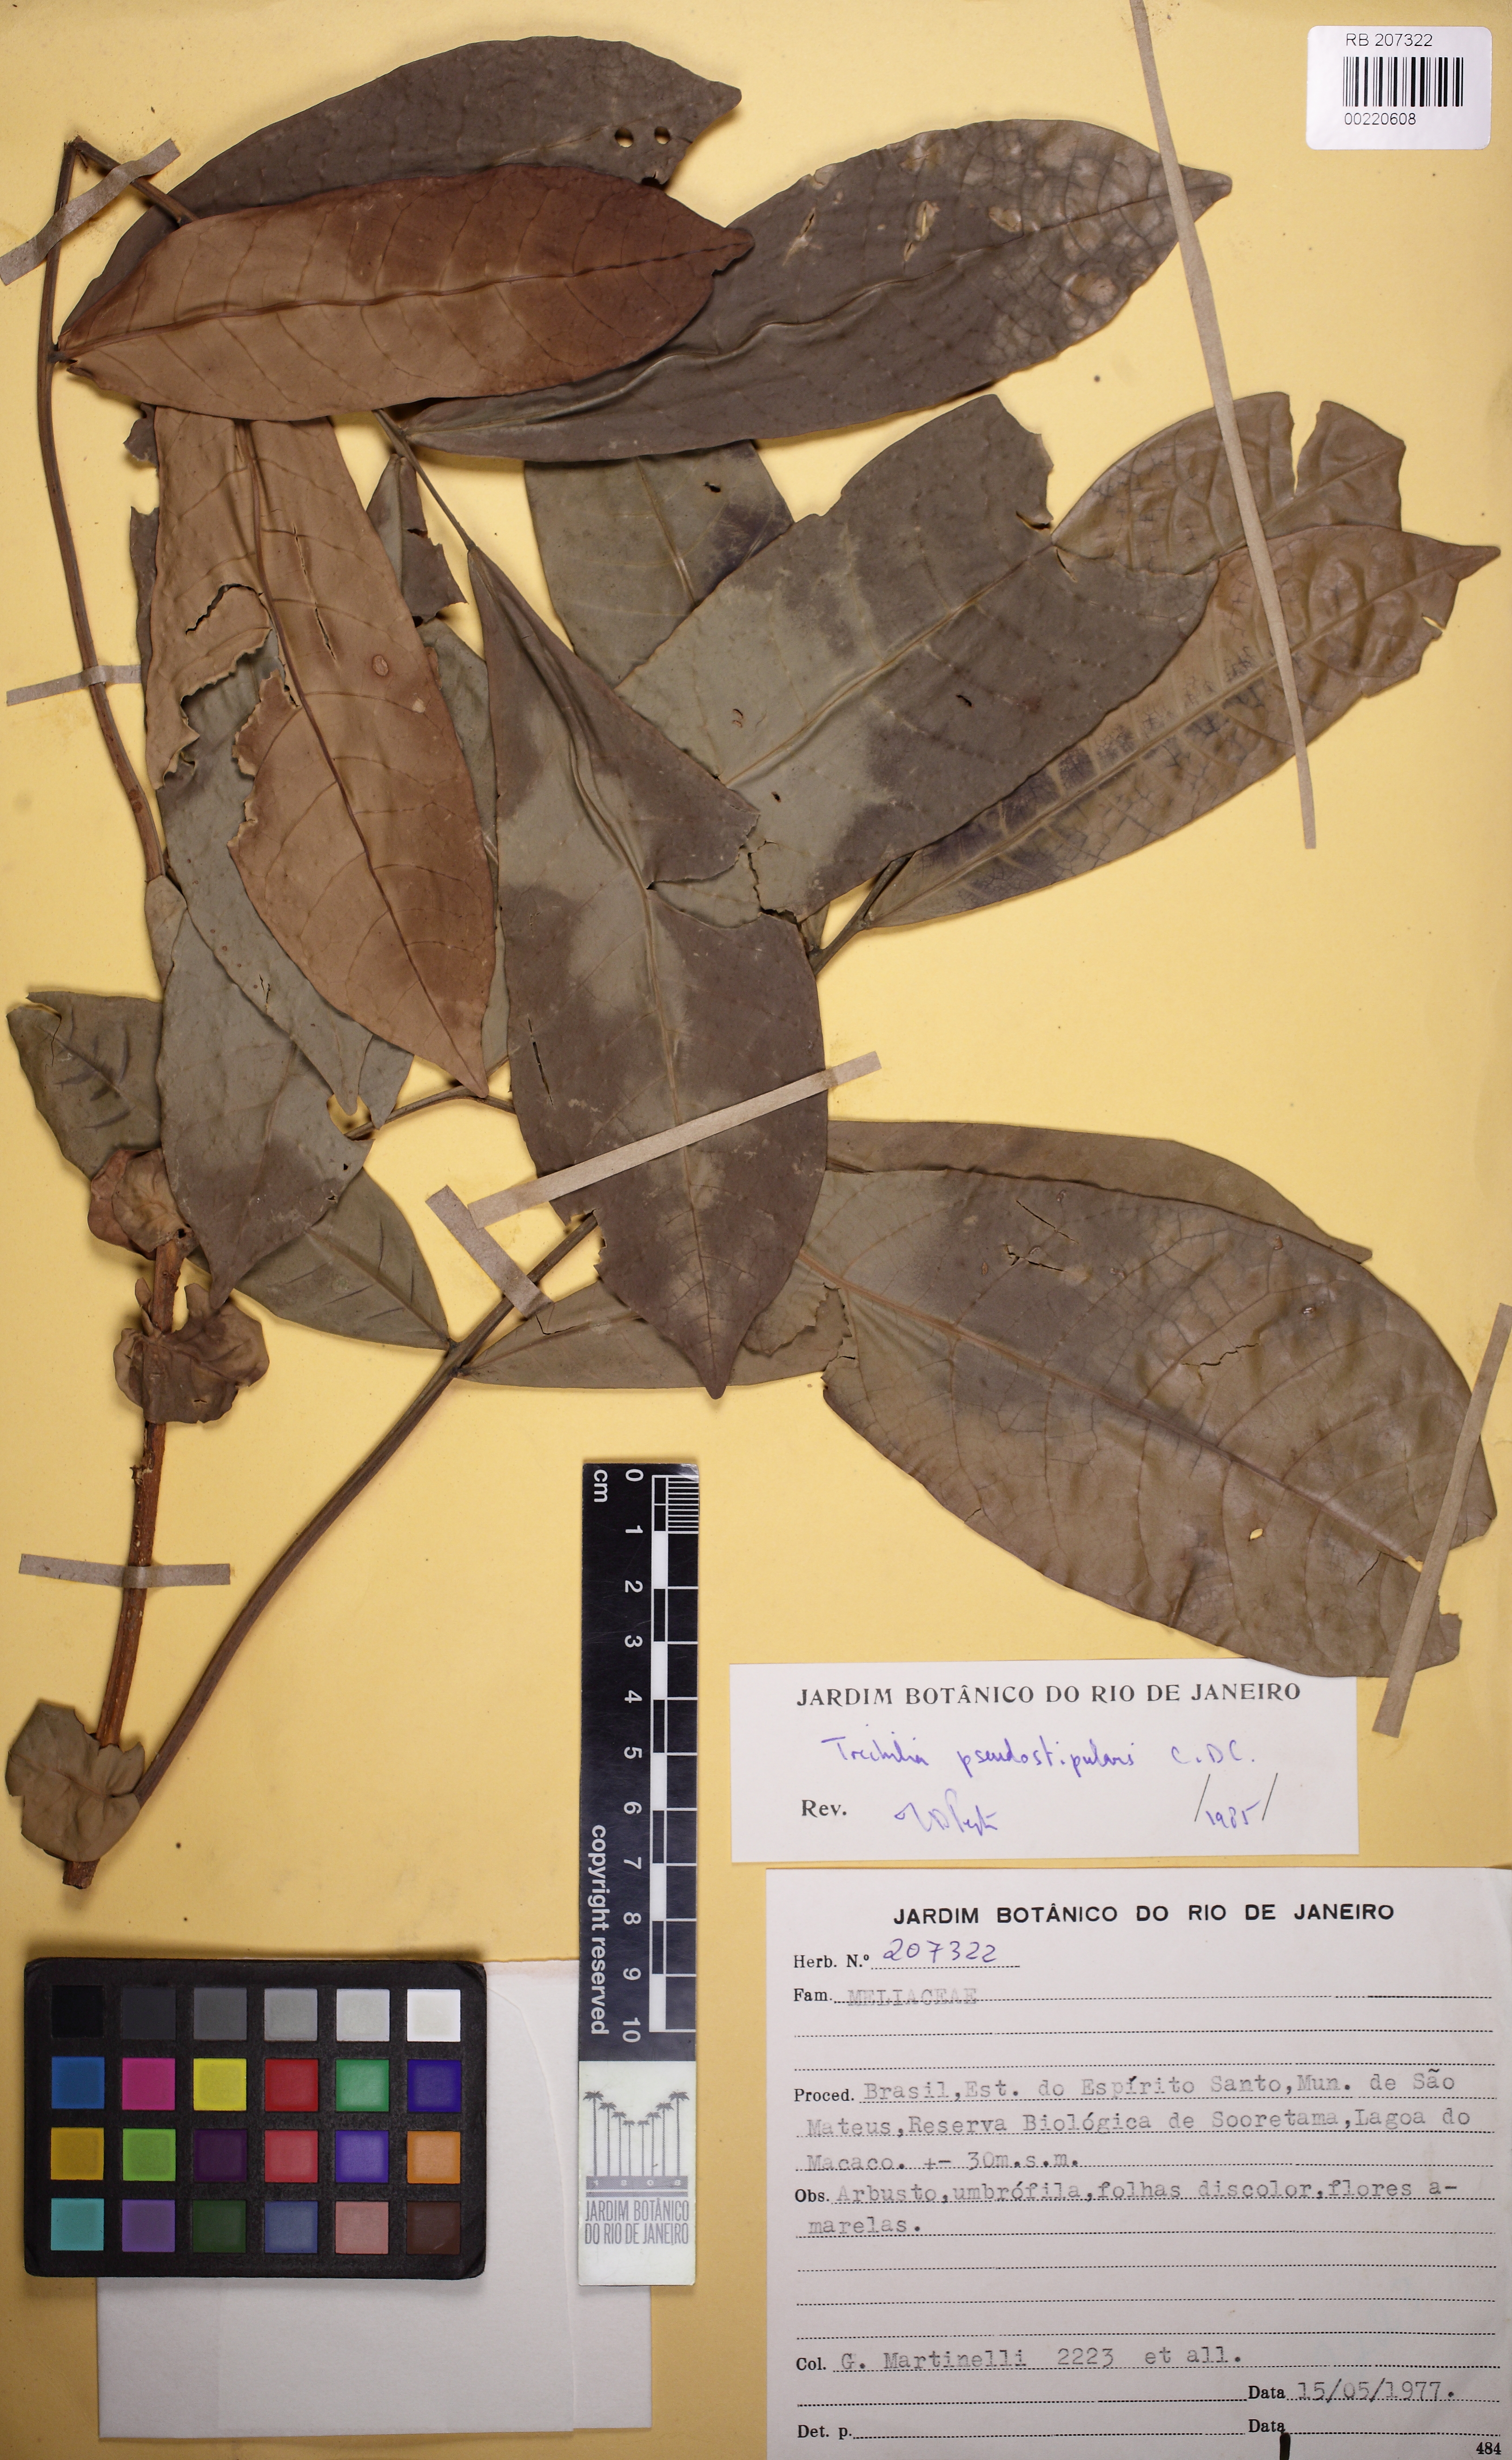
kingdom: Plantae
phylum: Tracheophyta
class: Magnoliopsida
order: Sapindales
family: Meliaceae
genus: Trichilia
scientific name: Trichilia pseudostipularis
